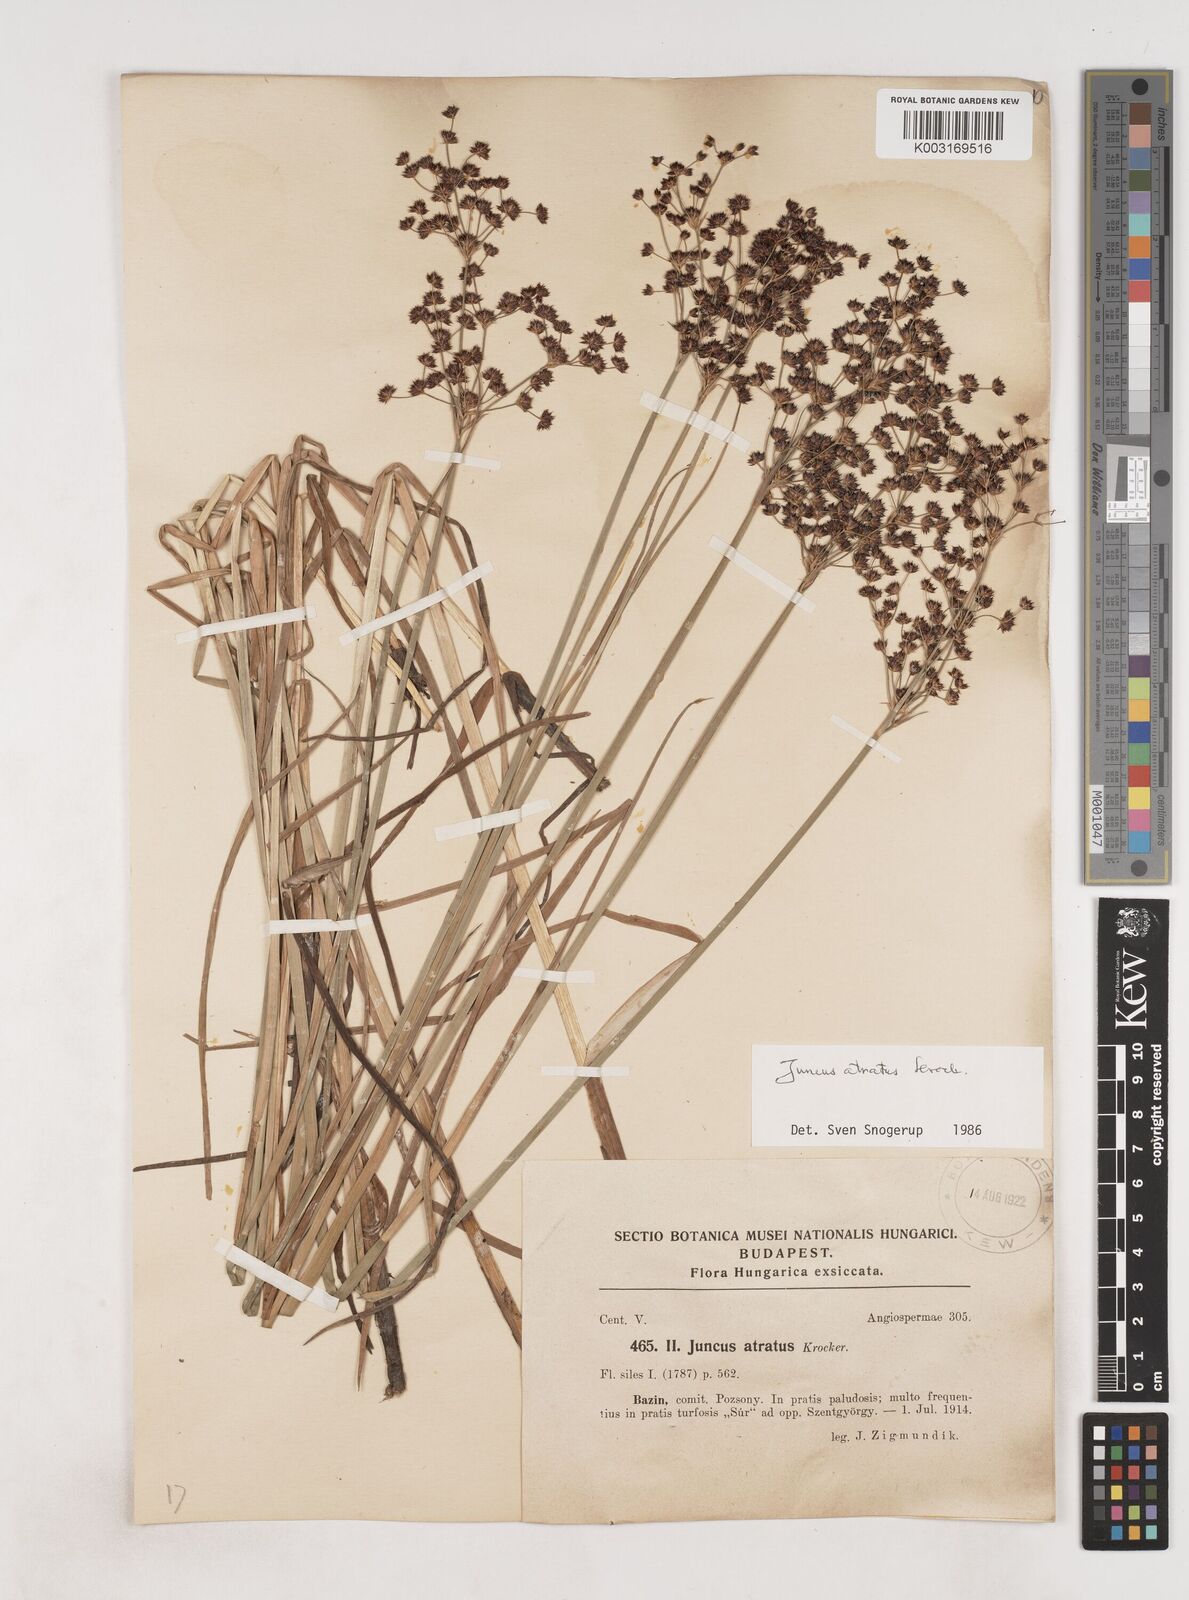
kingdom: Plantae
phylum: Tracheophyta
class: Liliopsida
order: Poales
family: Juncaceae
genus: Juncus
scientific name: Juncus atratus
